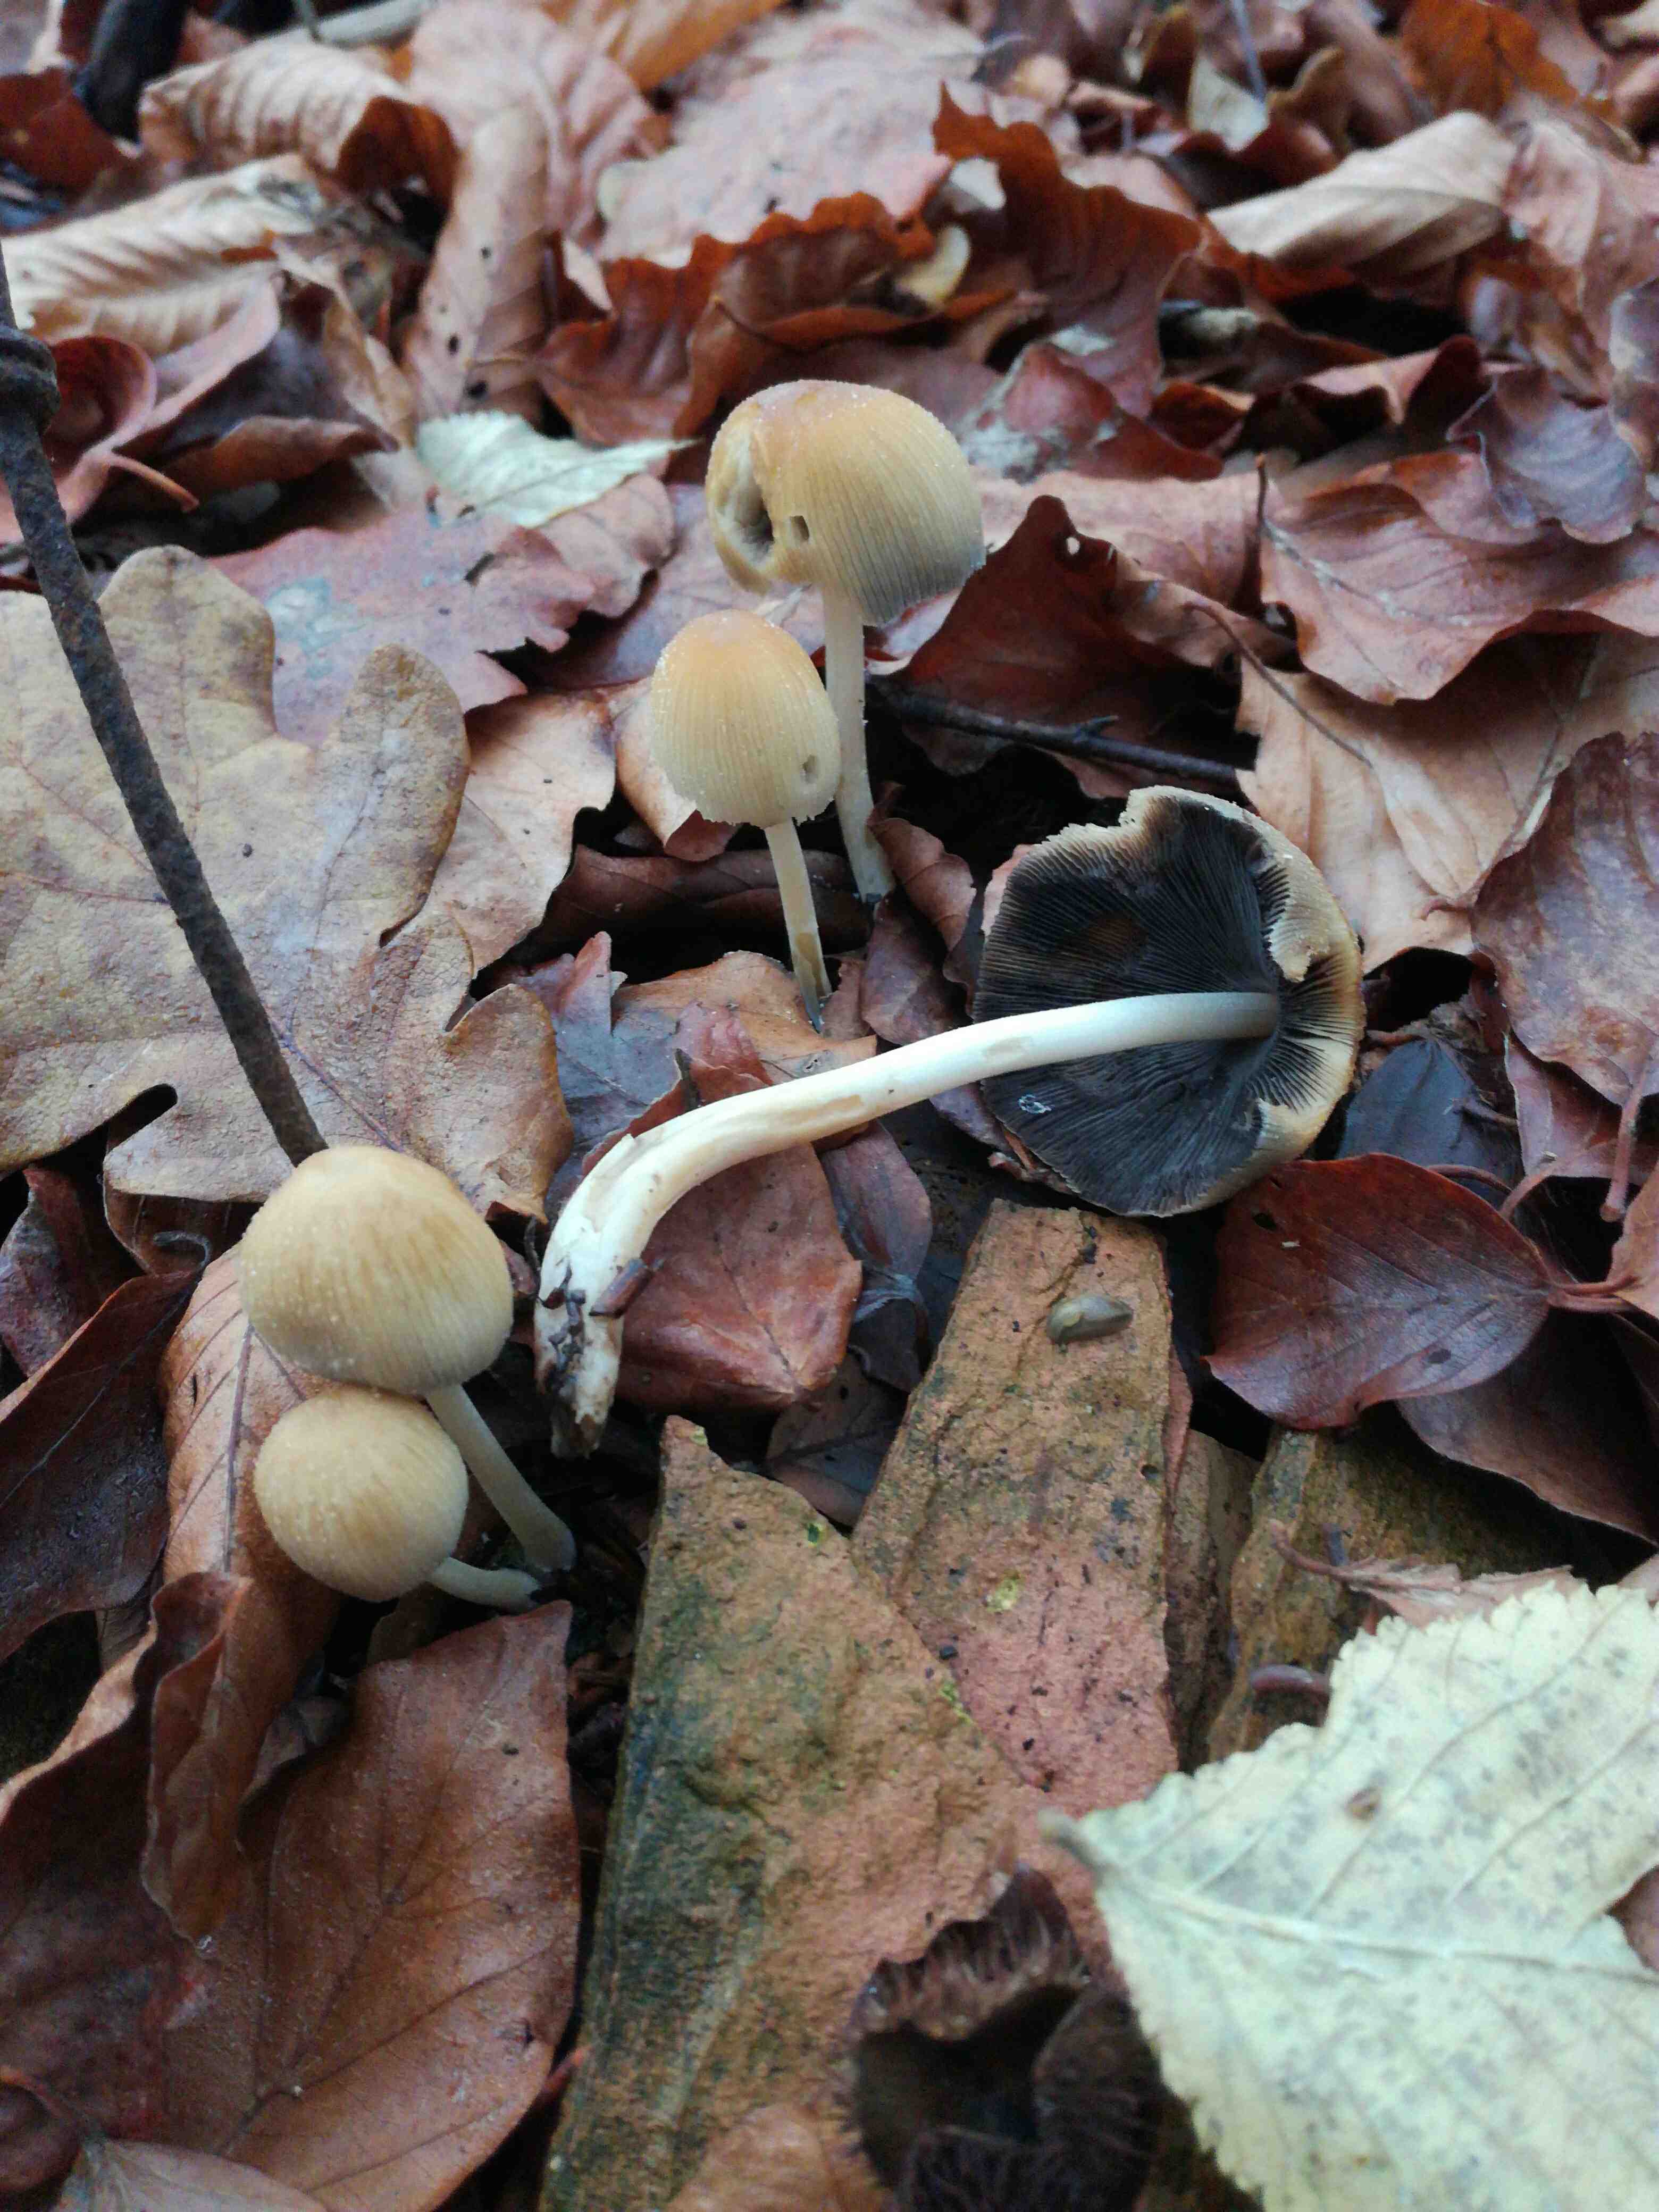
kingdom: Fungi
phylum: Basidiomycota
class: Agaricomycetes
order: Agaricales
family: Psathyrellaceae
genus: Coprinellus
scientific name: Coprinellus micaceus
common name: glimmer-blækhat
